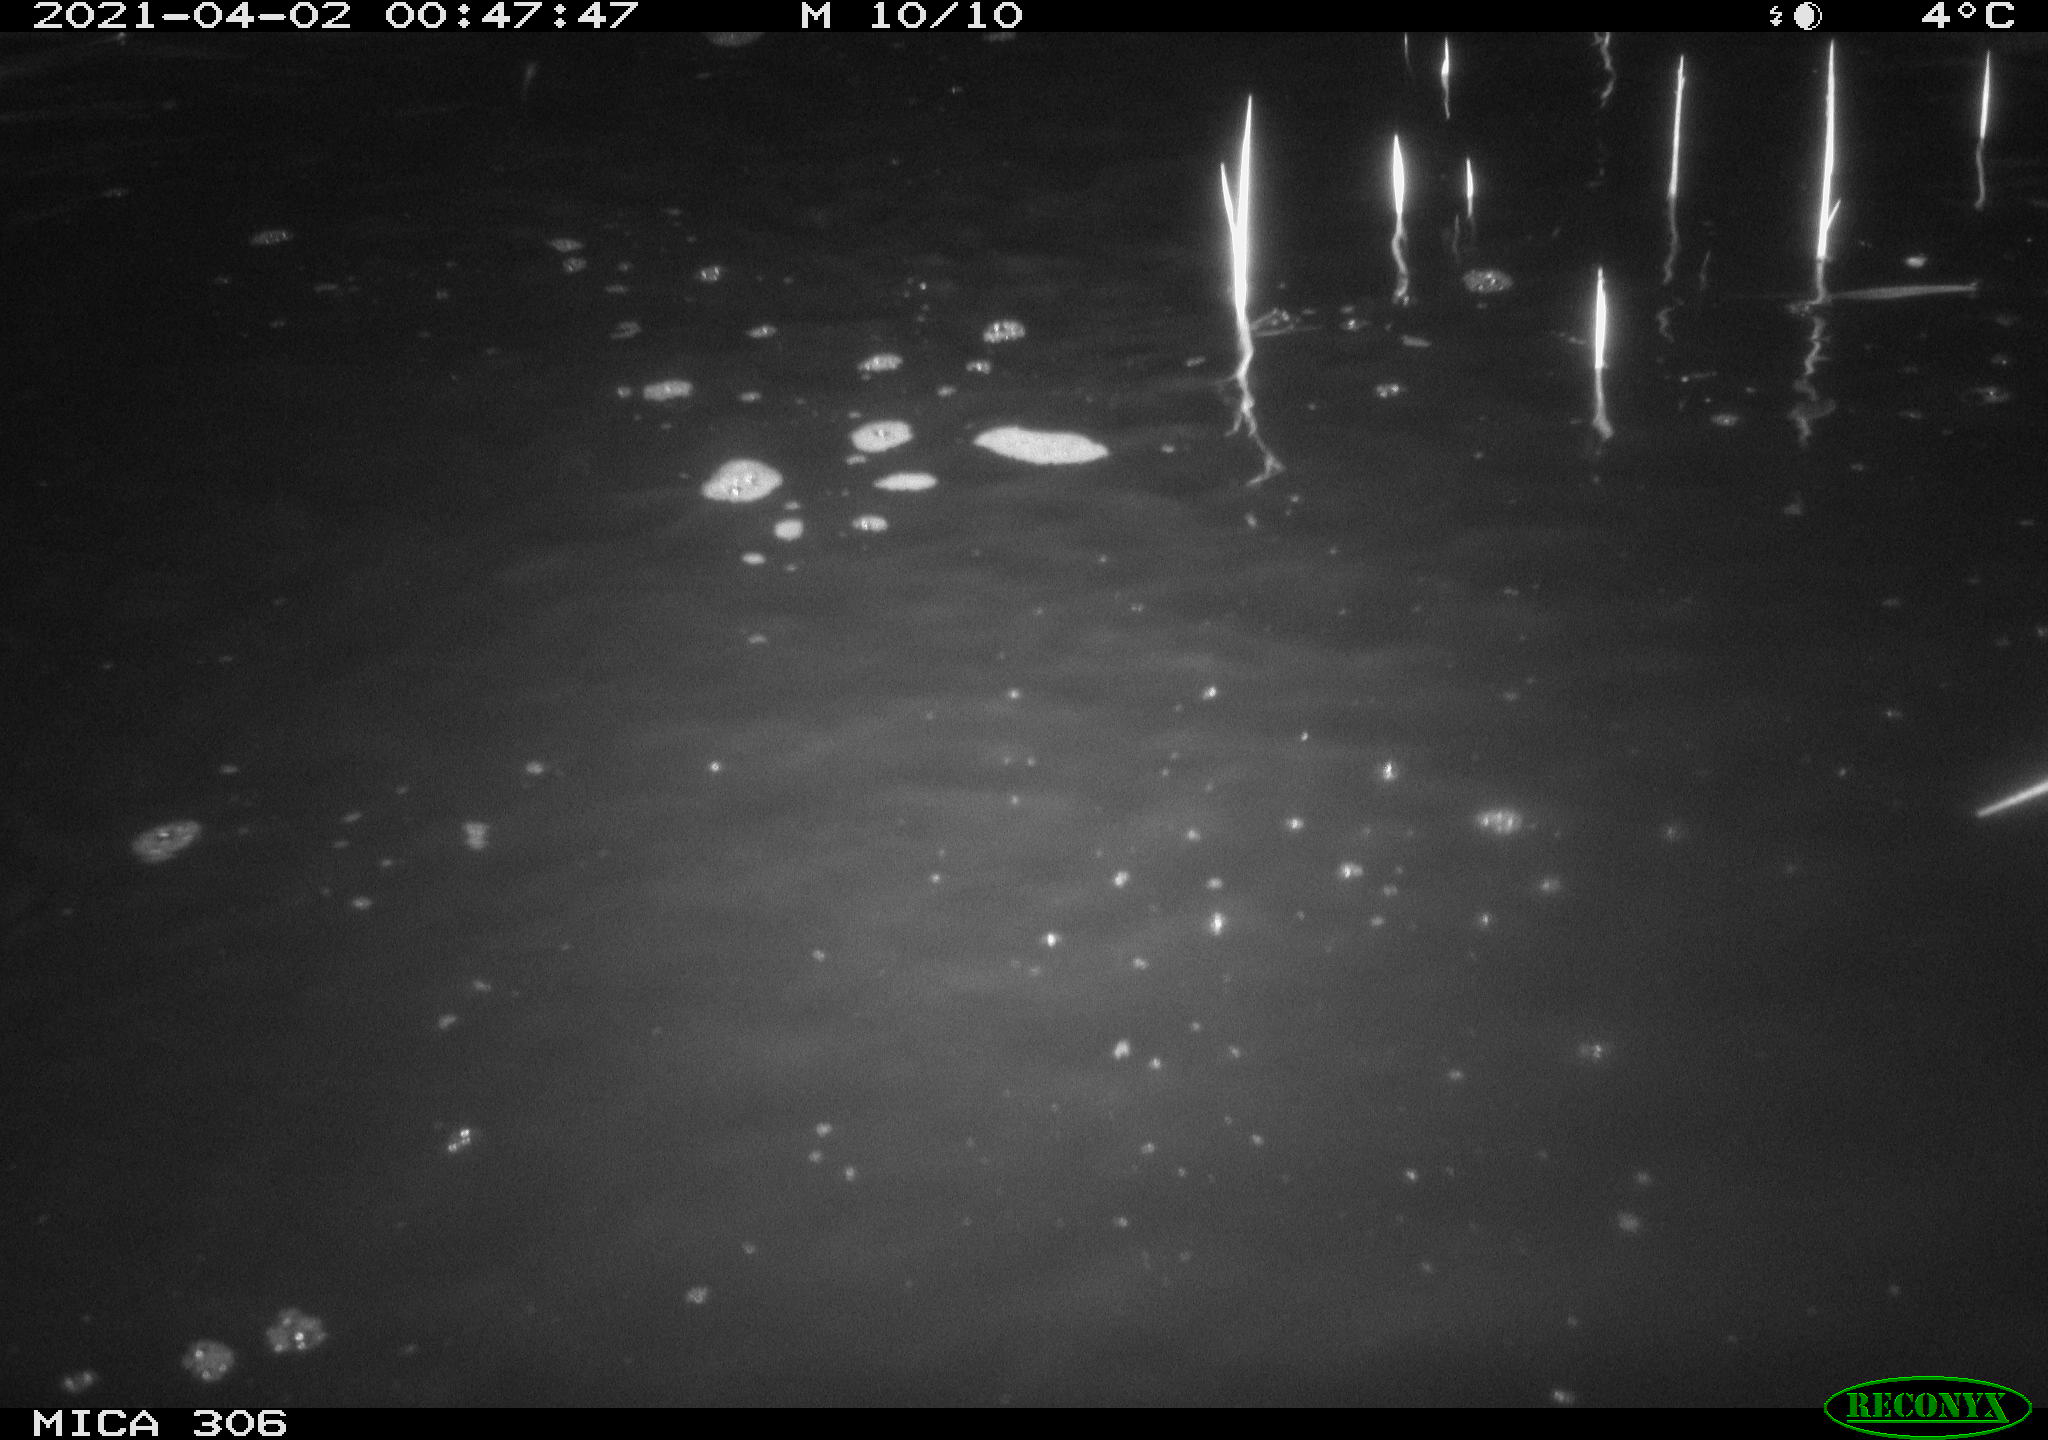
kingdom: Animalia
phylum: Chordata
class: Aves
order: Anseriformes
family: Anatidae
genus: Anas
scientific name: Anas
